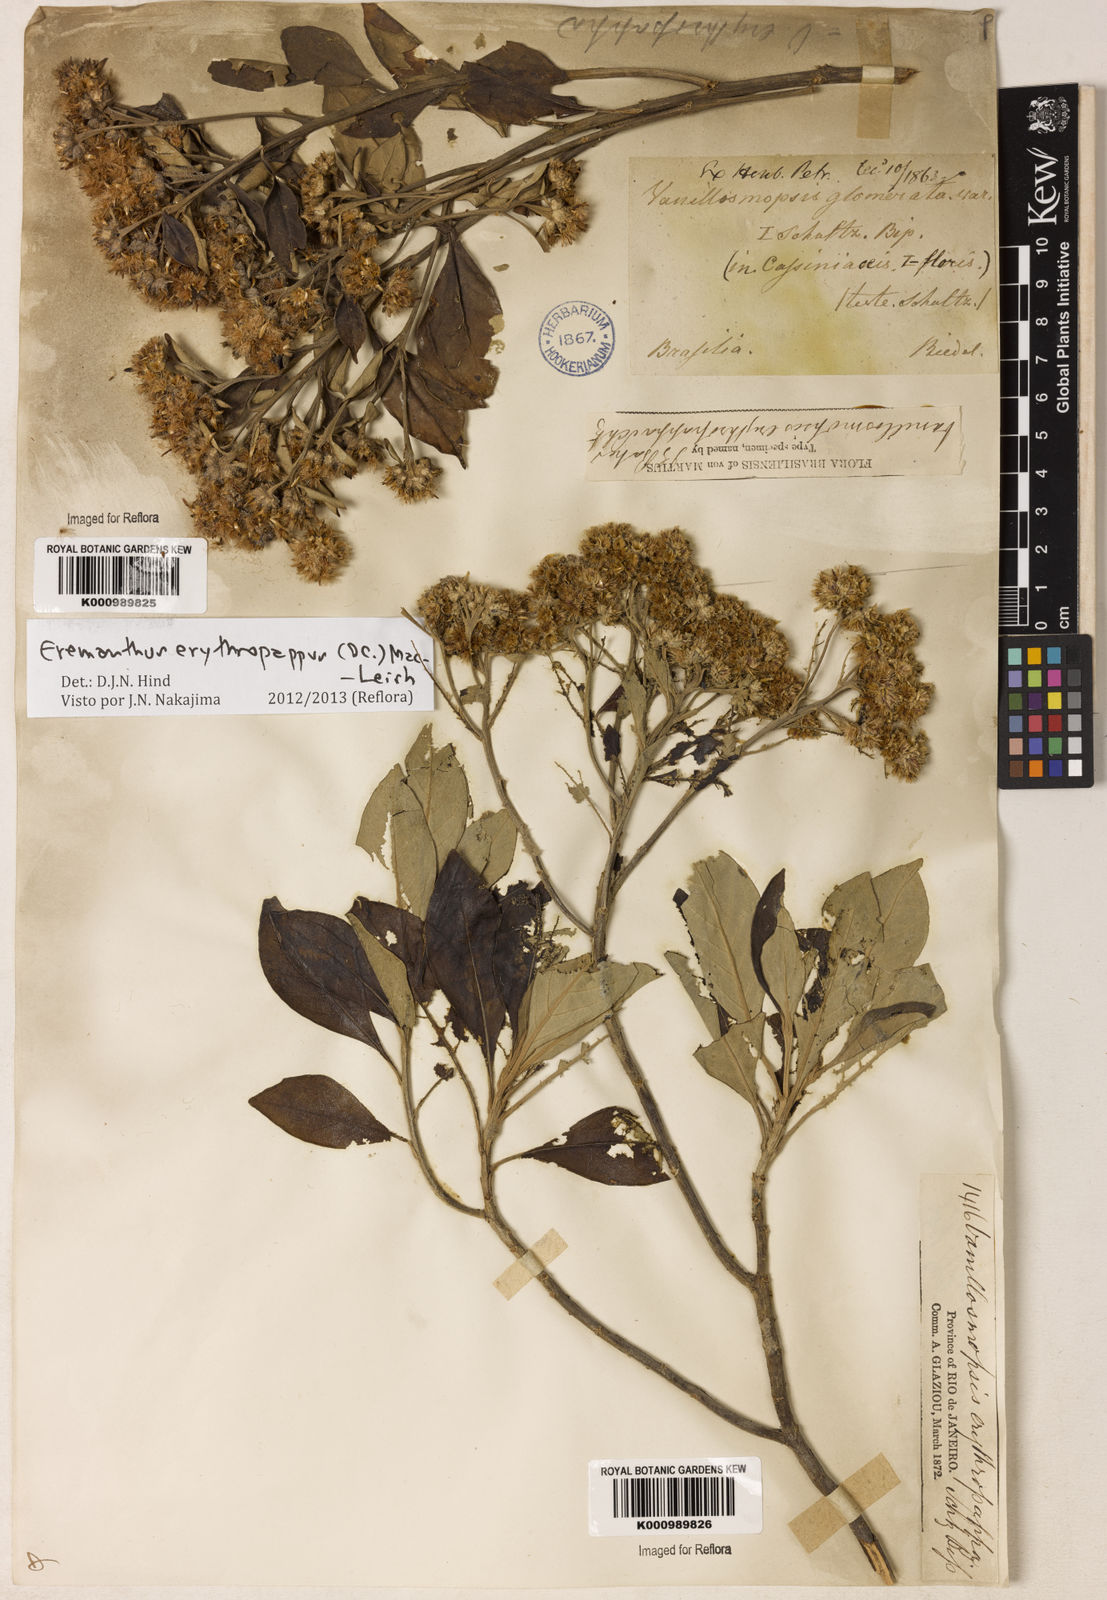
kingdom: Plantae
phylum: Tracheophyta
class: Magnoliopsida
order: Asterales
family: Asteraceae
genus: Eremanthus
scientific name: Eremanthus erythropappus
